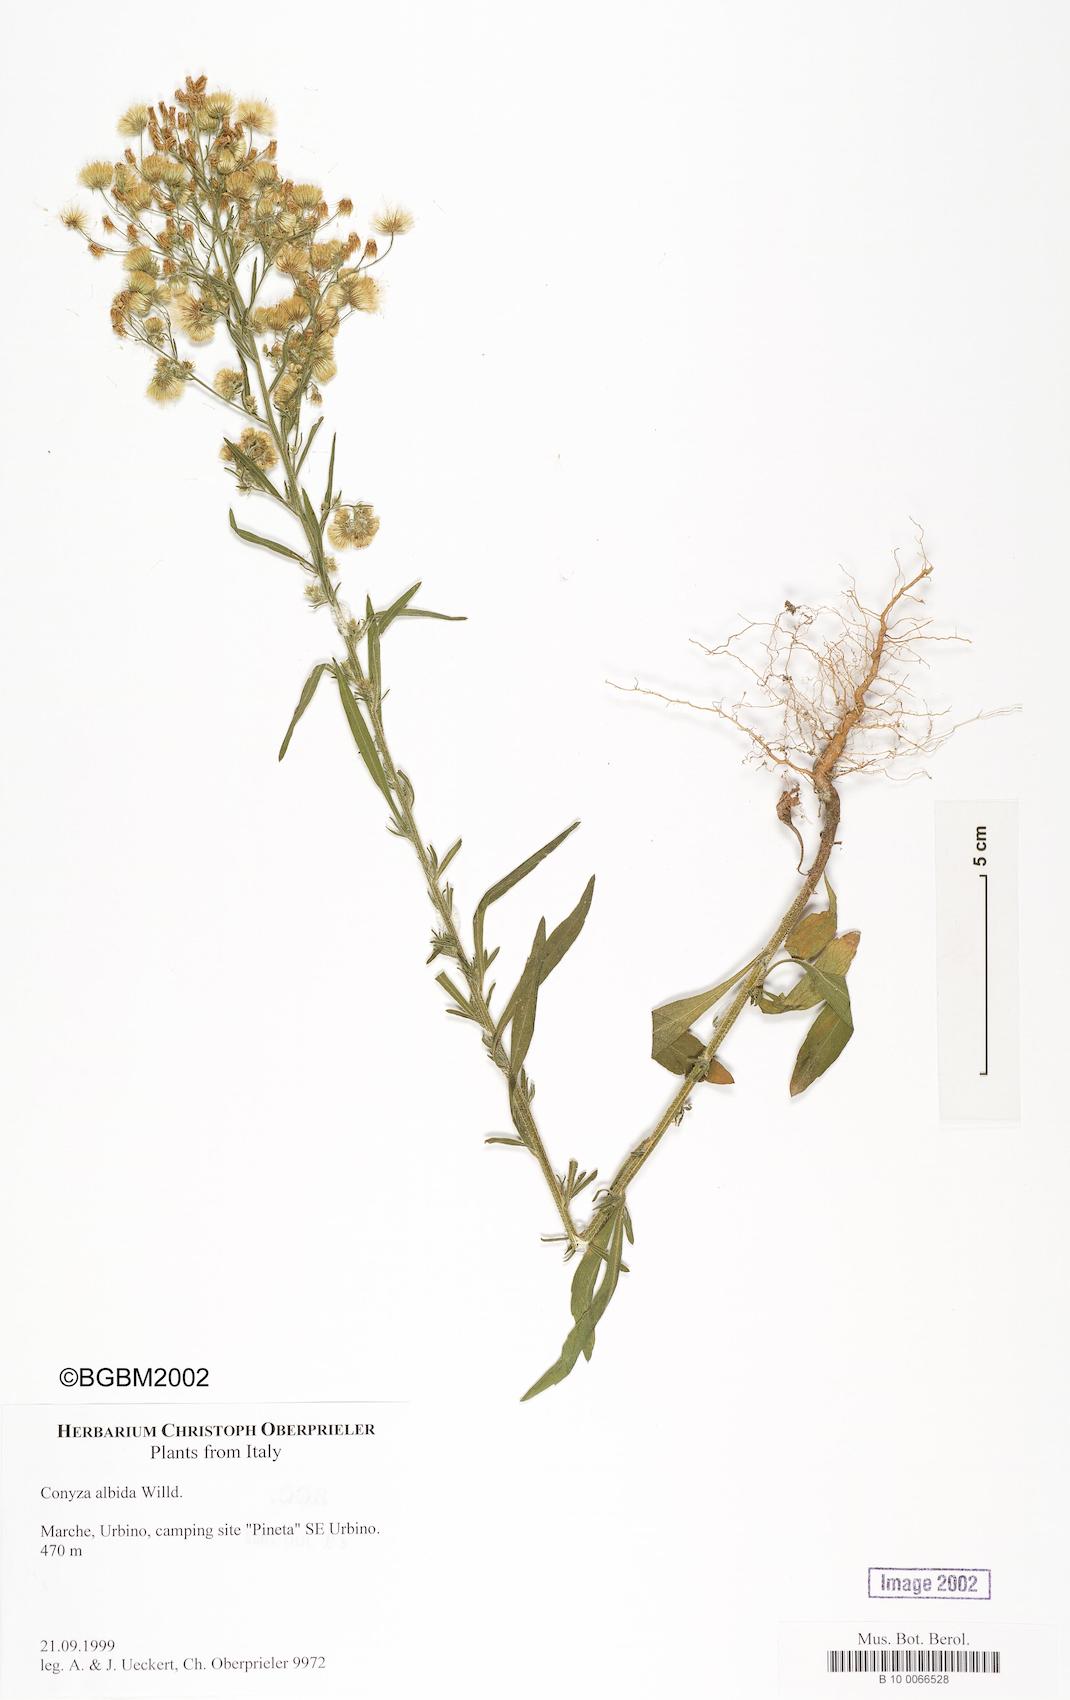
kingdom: Plantae
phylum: Tracheophyta
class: Magnoliopsida
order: Asterales
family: Asteraceae
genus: Erigeron
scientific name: Erigeron floribundus
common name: Bilbao fleabane
